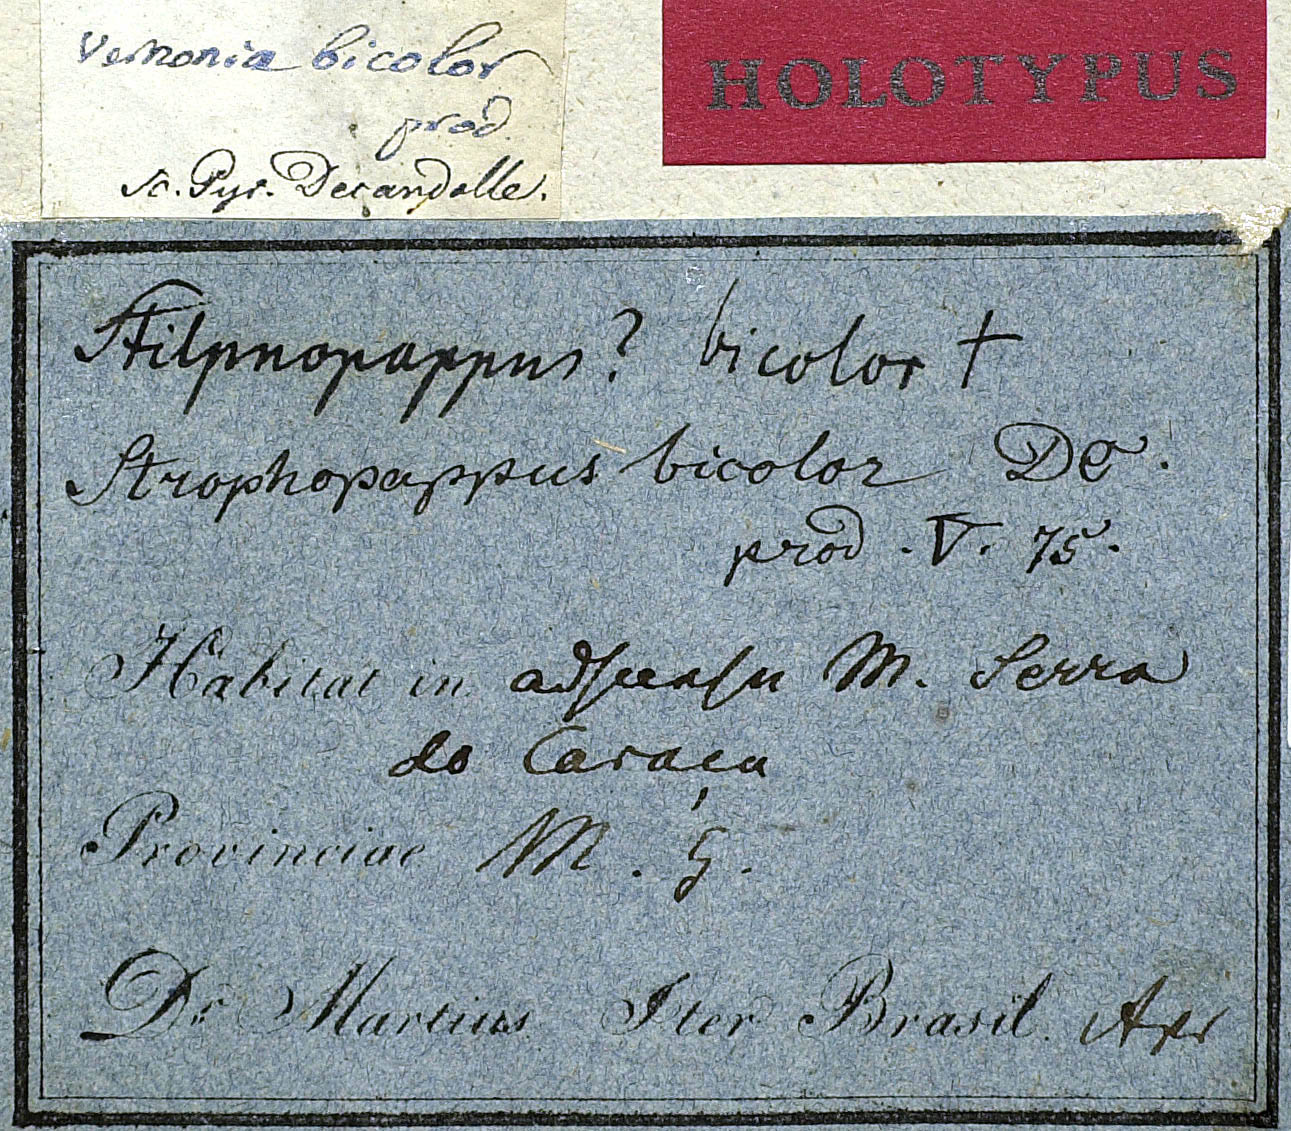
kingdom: Plantae
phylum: Tracheophyta
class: Magnoliopsida
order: Asterales
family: Asteraceae
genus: Stilpnopappus
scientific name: Stilpnopappus bicolor
